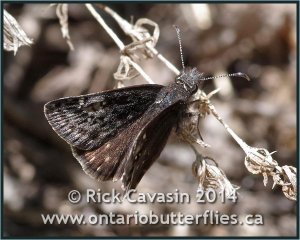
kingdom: Animalia
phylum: Arthropoda
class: Insecta
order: Lepidoptera
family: Hesperiidae
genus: Gesta
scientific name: Gesta
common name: Persius Duskywing
